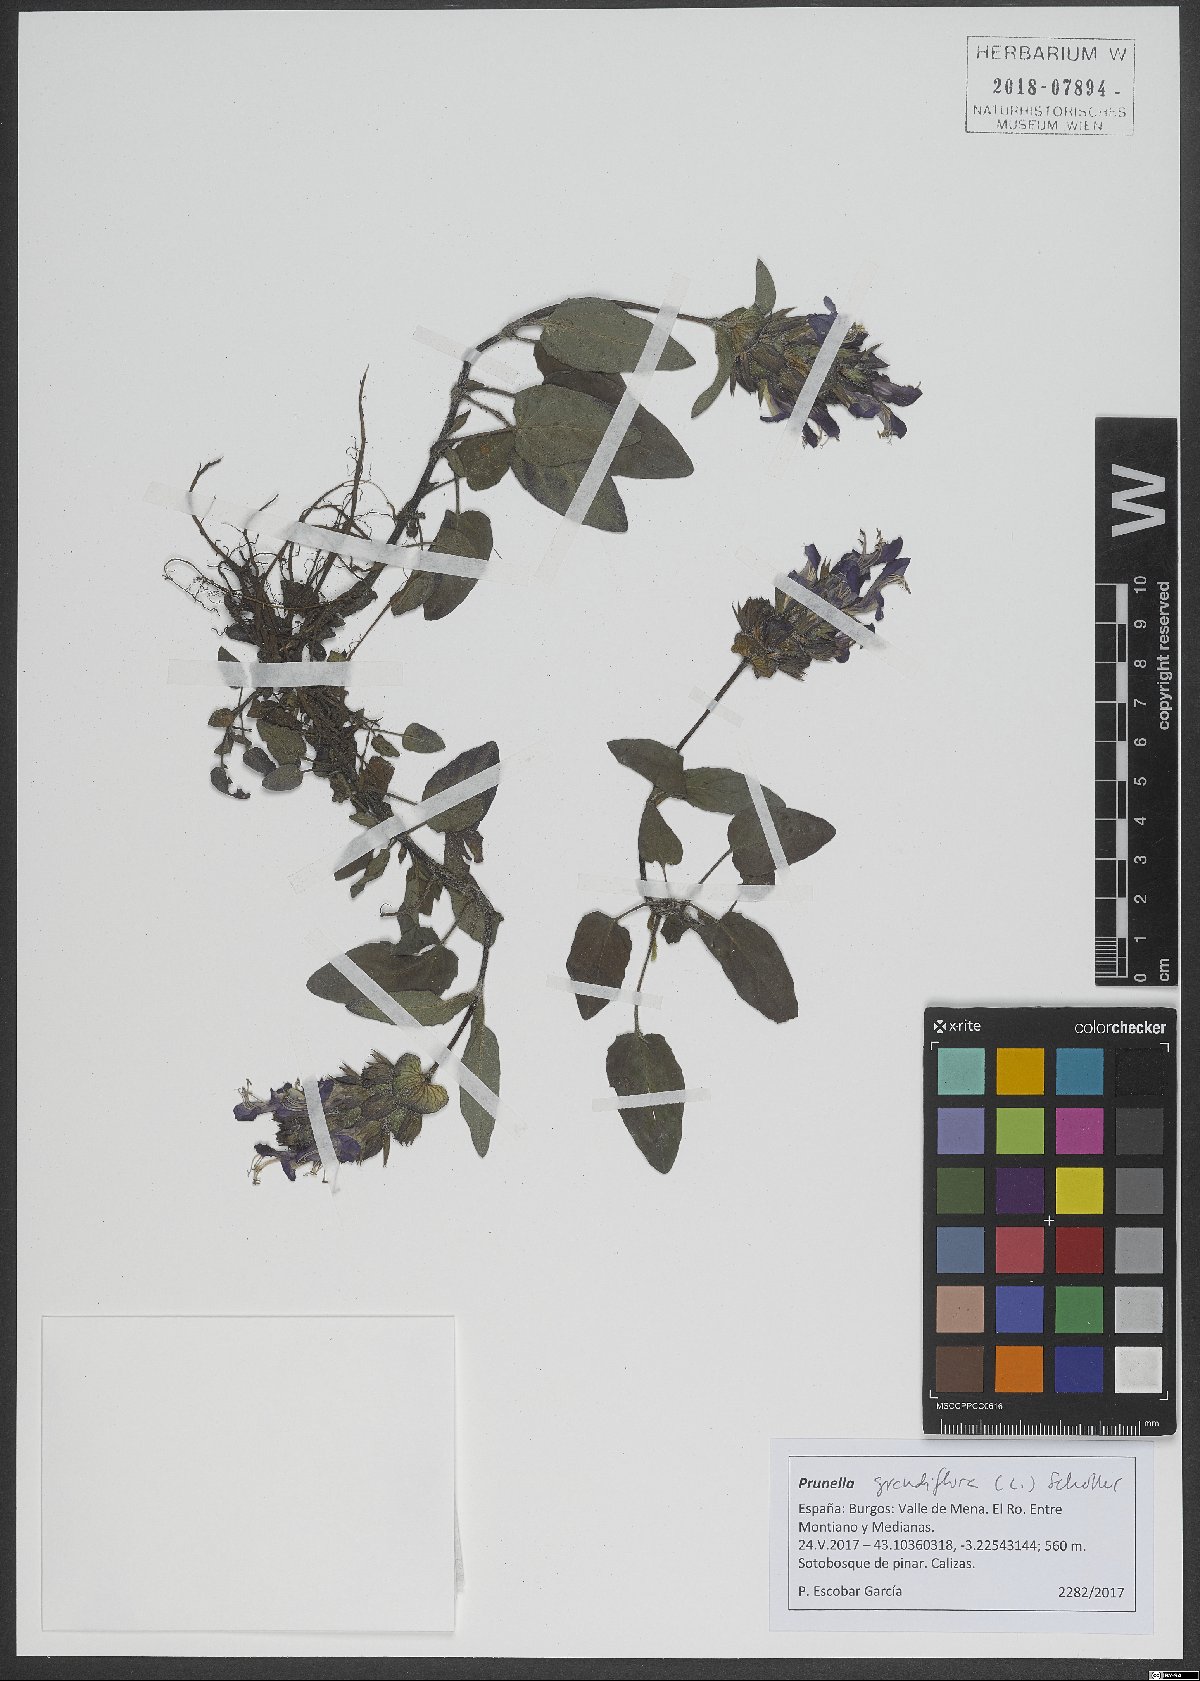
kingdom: Plantae
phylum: Tracheophyta
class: Magnoliopsida
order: Lamiales
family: Lamiaceae
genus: Prunella
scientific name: Prunella grandiflora
